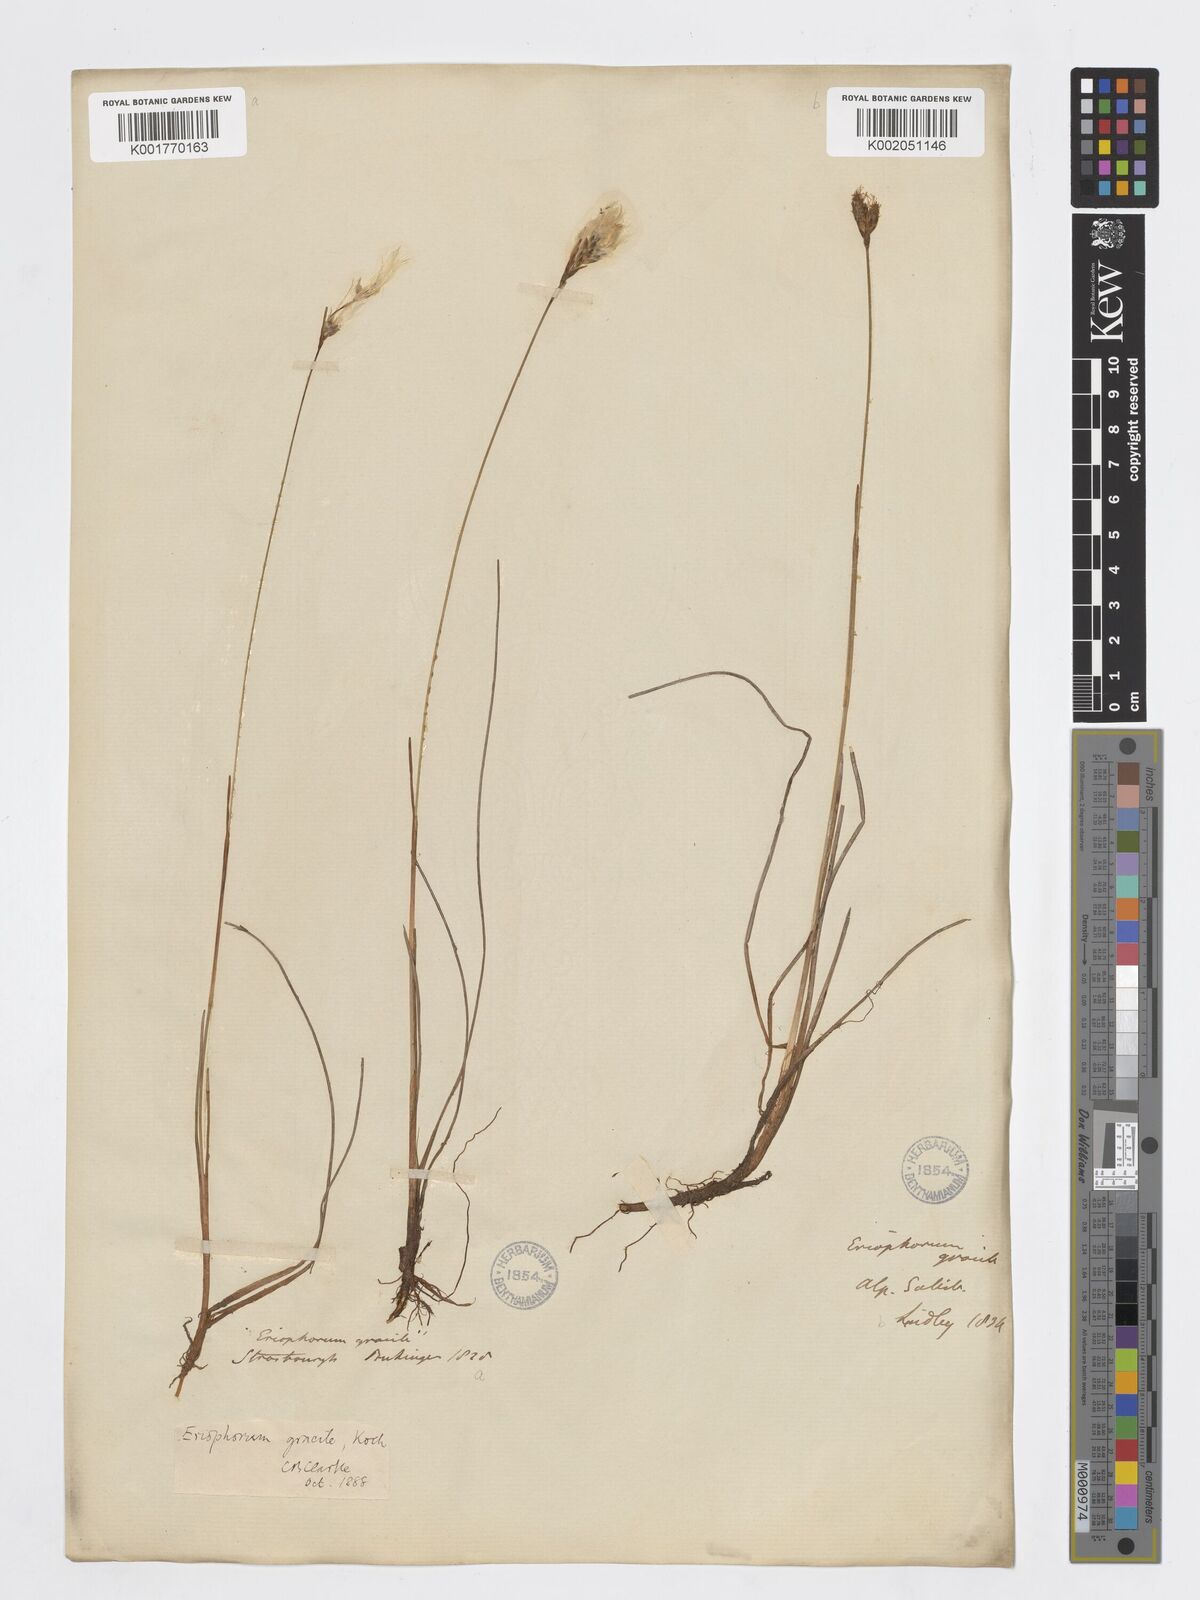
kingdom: Plantae
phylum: Tracheophyta
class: Liliopsida
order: Poales
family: Cyperaceae
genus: Eriophorum
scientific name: Eriophorum gracile
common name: Slender cottongrass
